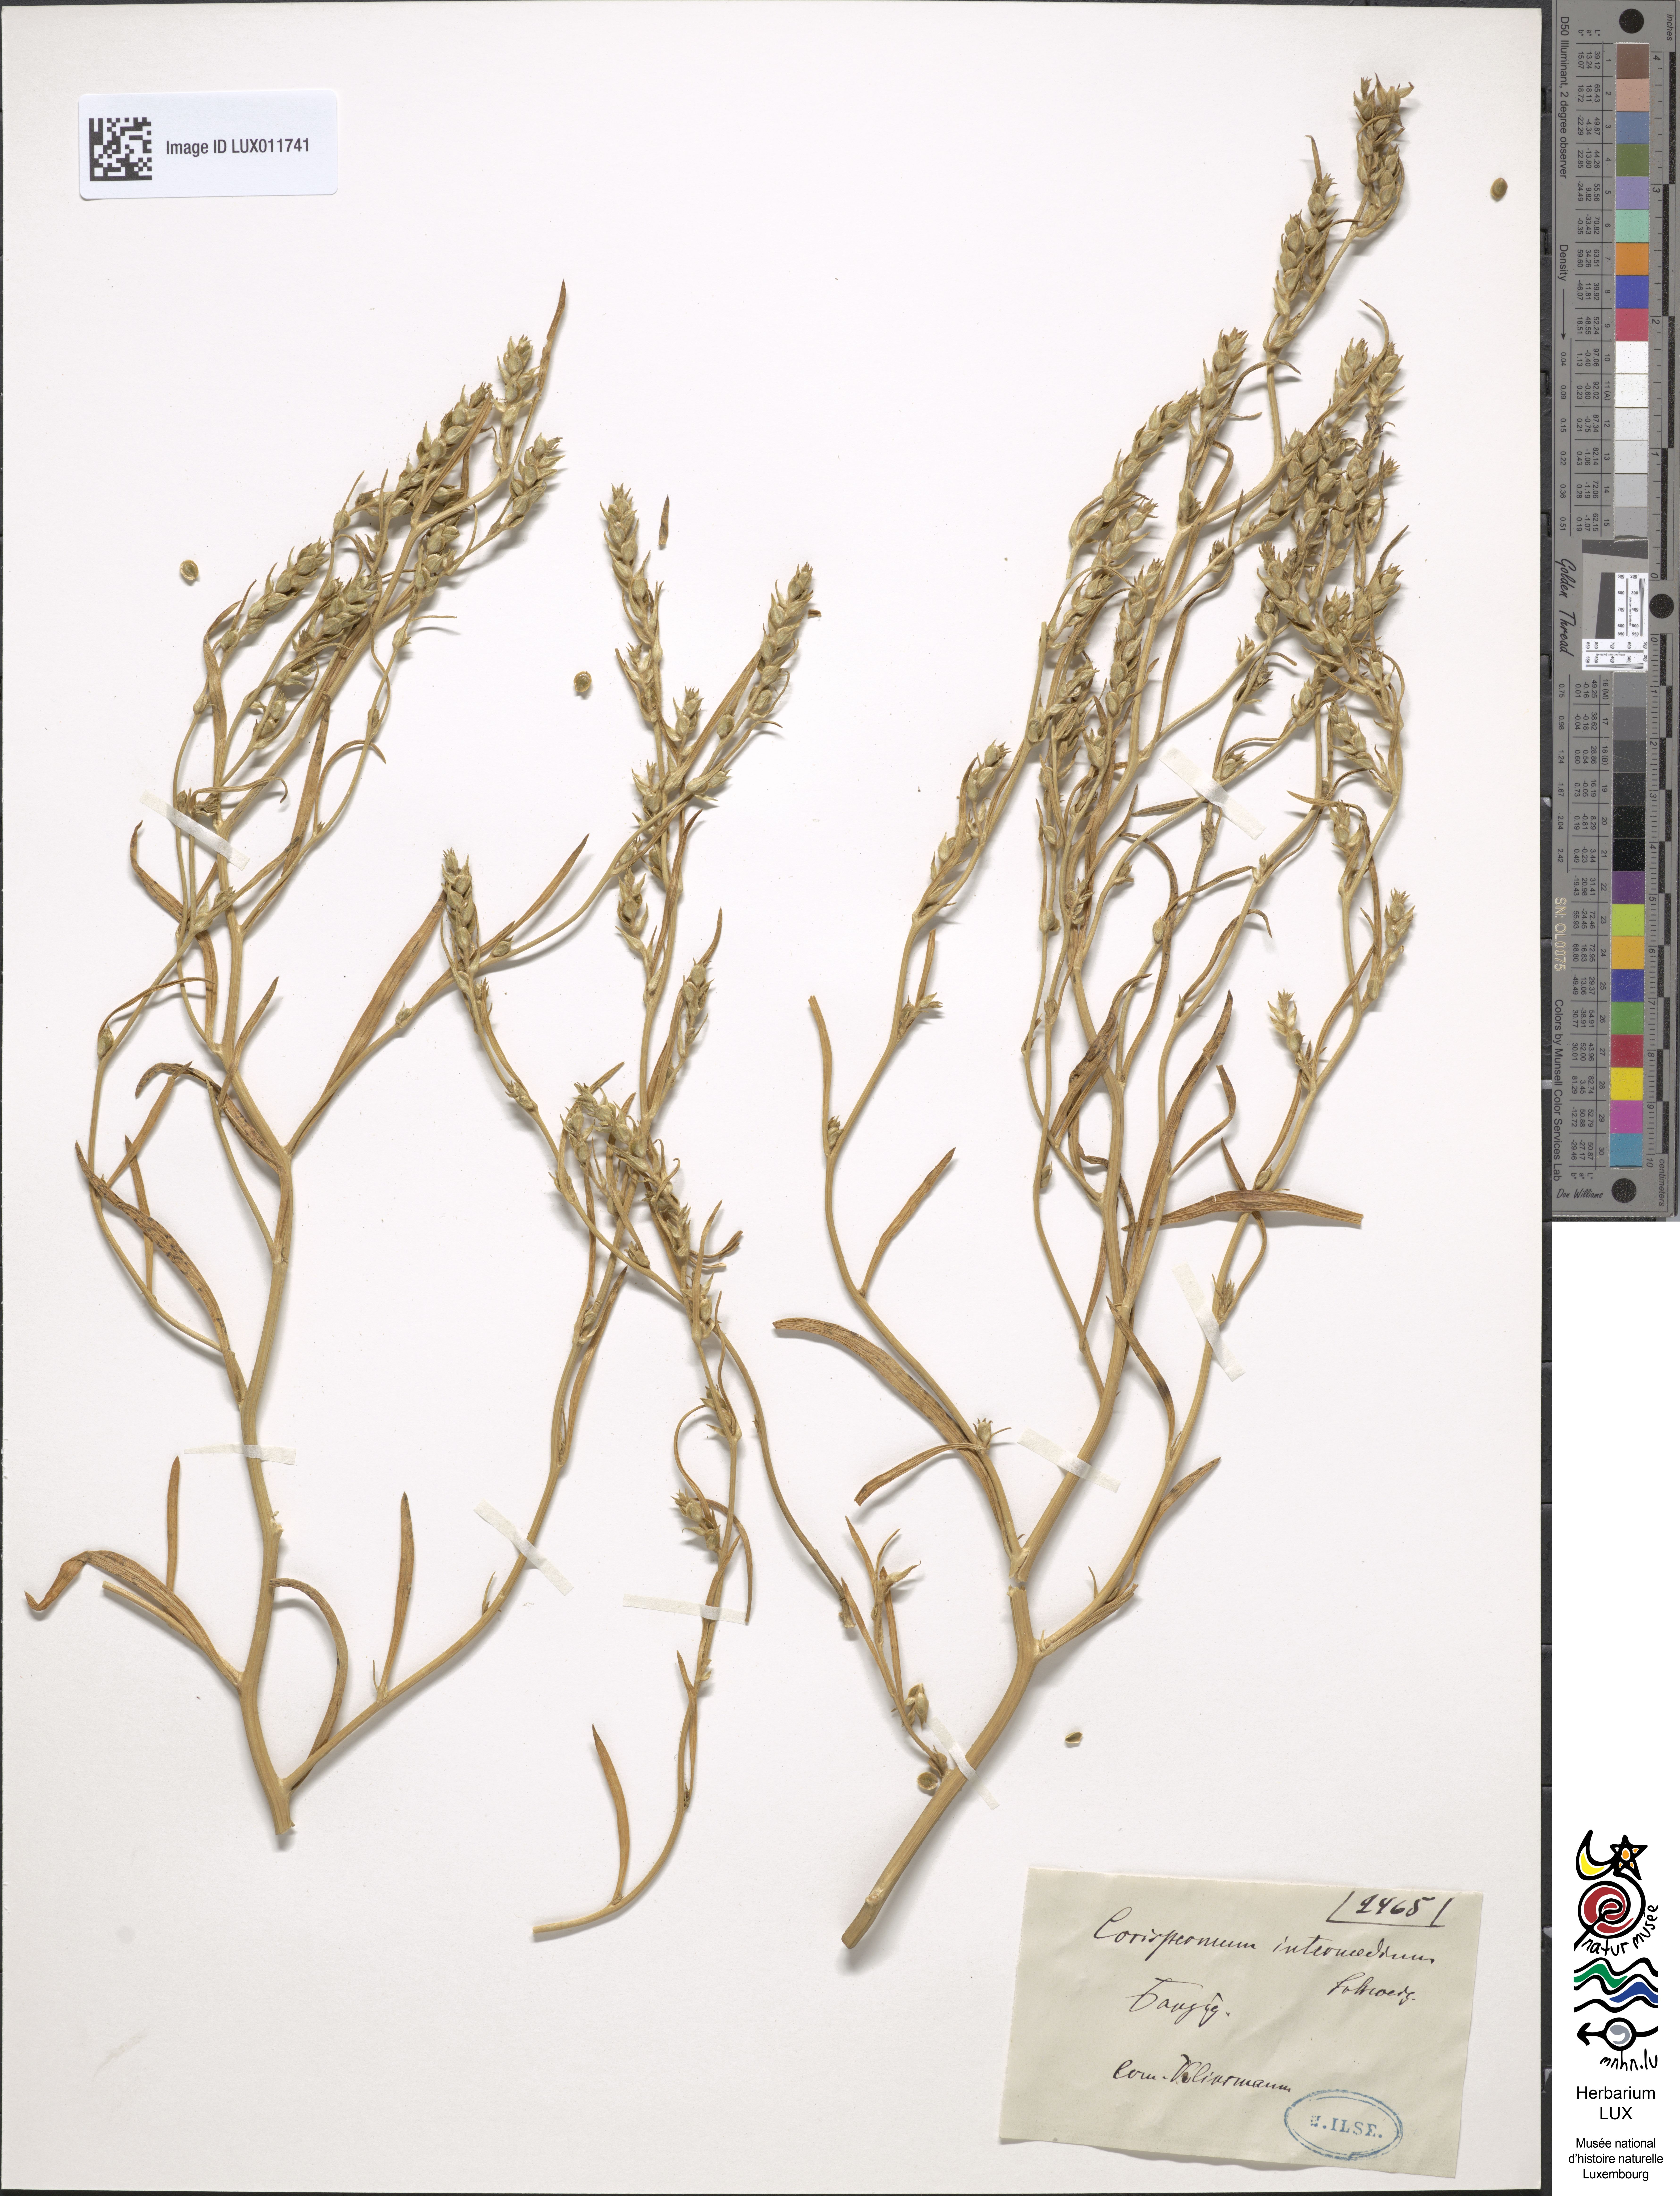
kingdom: Plantae
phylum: Tracheophyta
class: Magnoliopsida
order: Caryophyllales
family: Amaranthaceae
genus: Corispermum
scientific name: Corispermum hyssopifolium
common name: Bugseed
